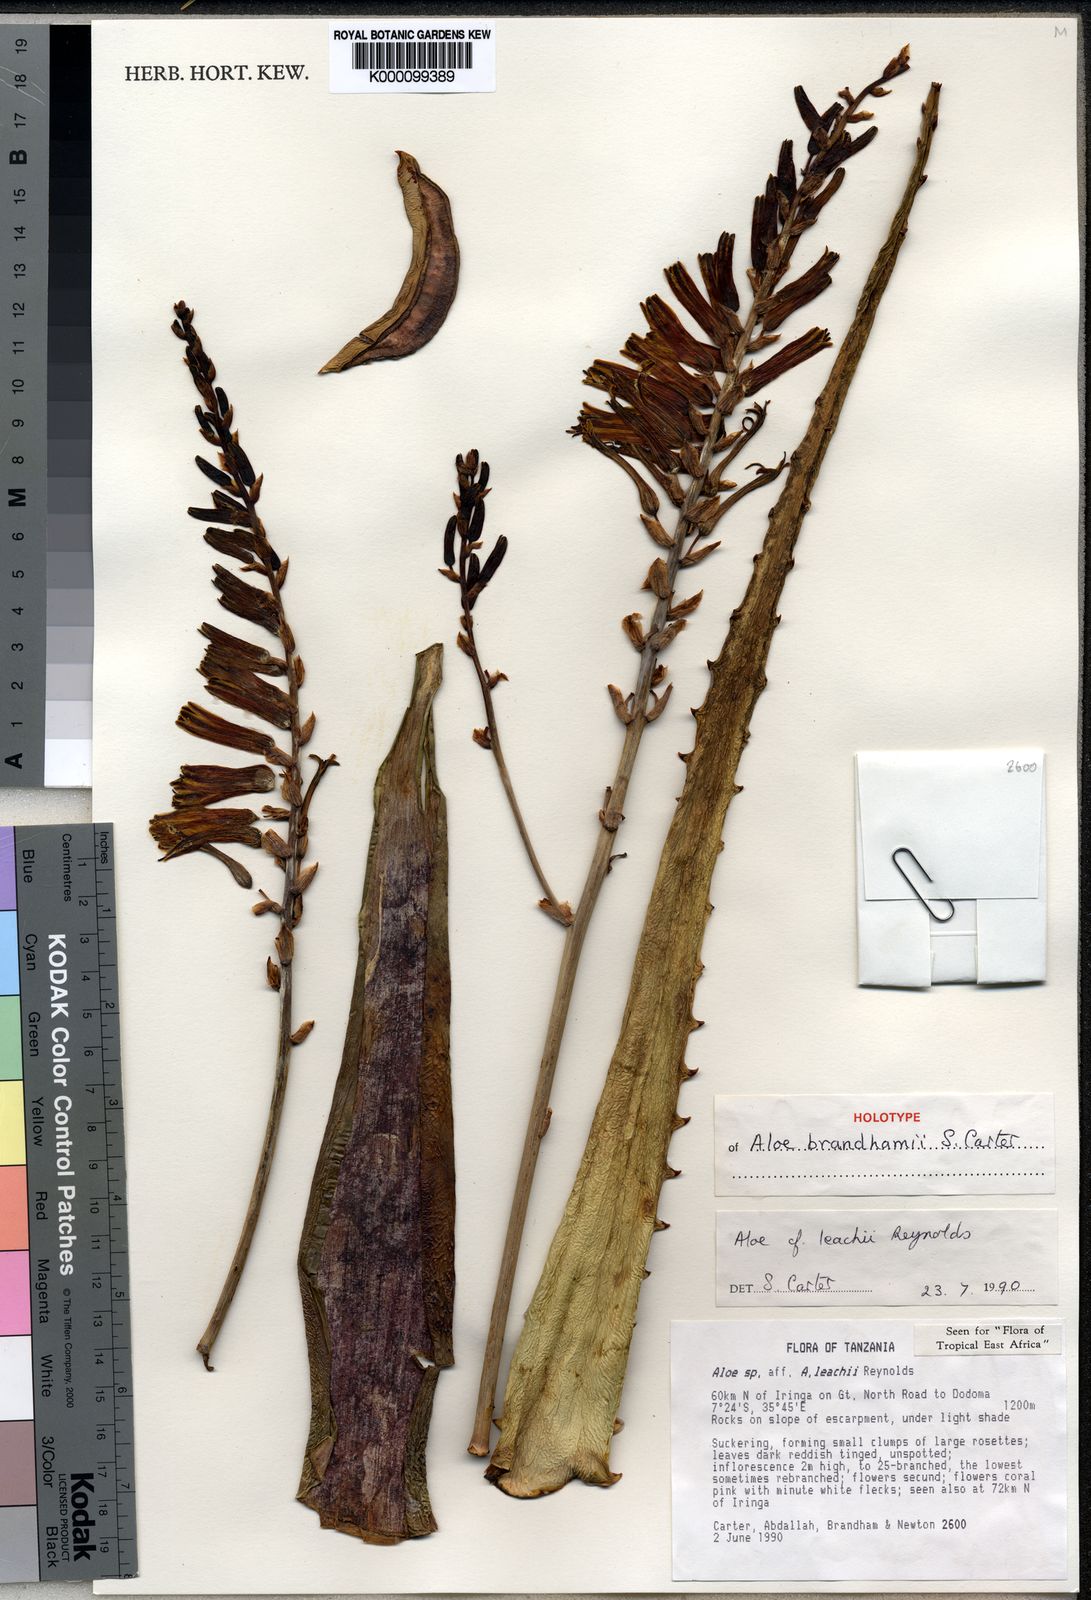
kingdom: Plantae
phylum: Tracheophyta
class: Liliopsida
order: Asparagales
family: Asphodelaceae
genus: Aloe
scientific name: Aloe brandhamii
